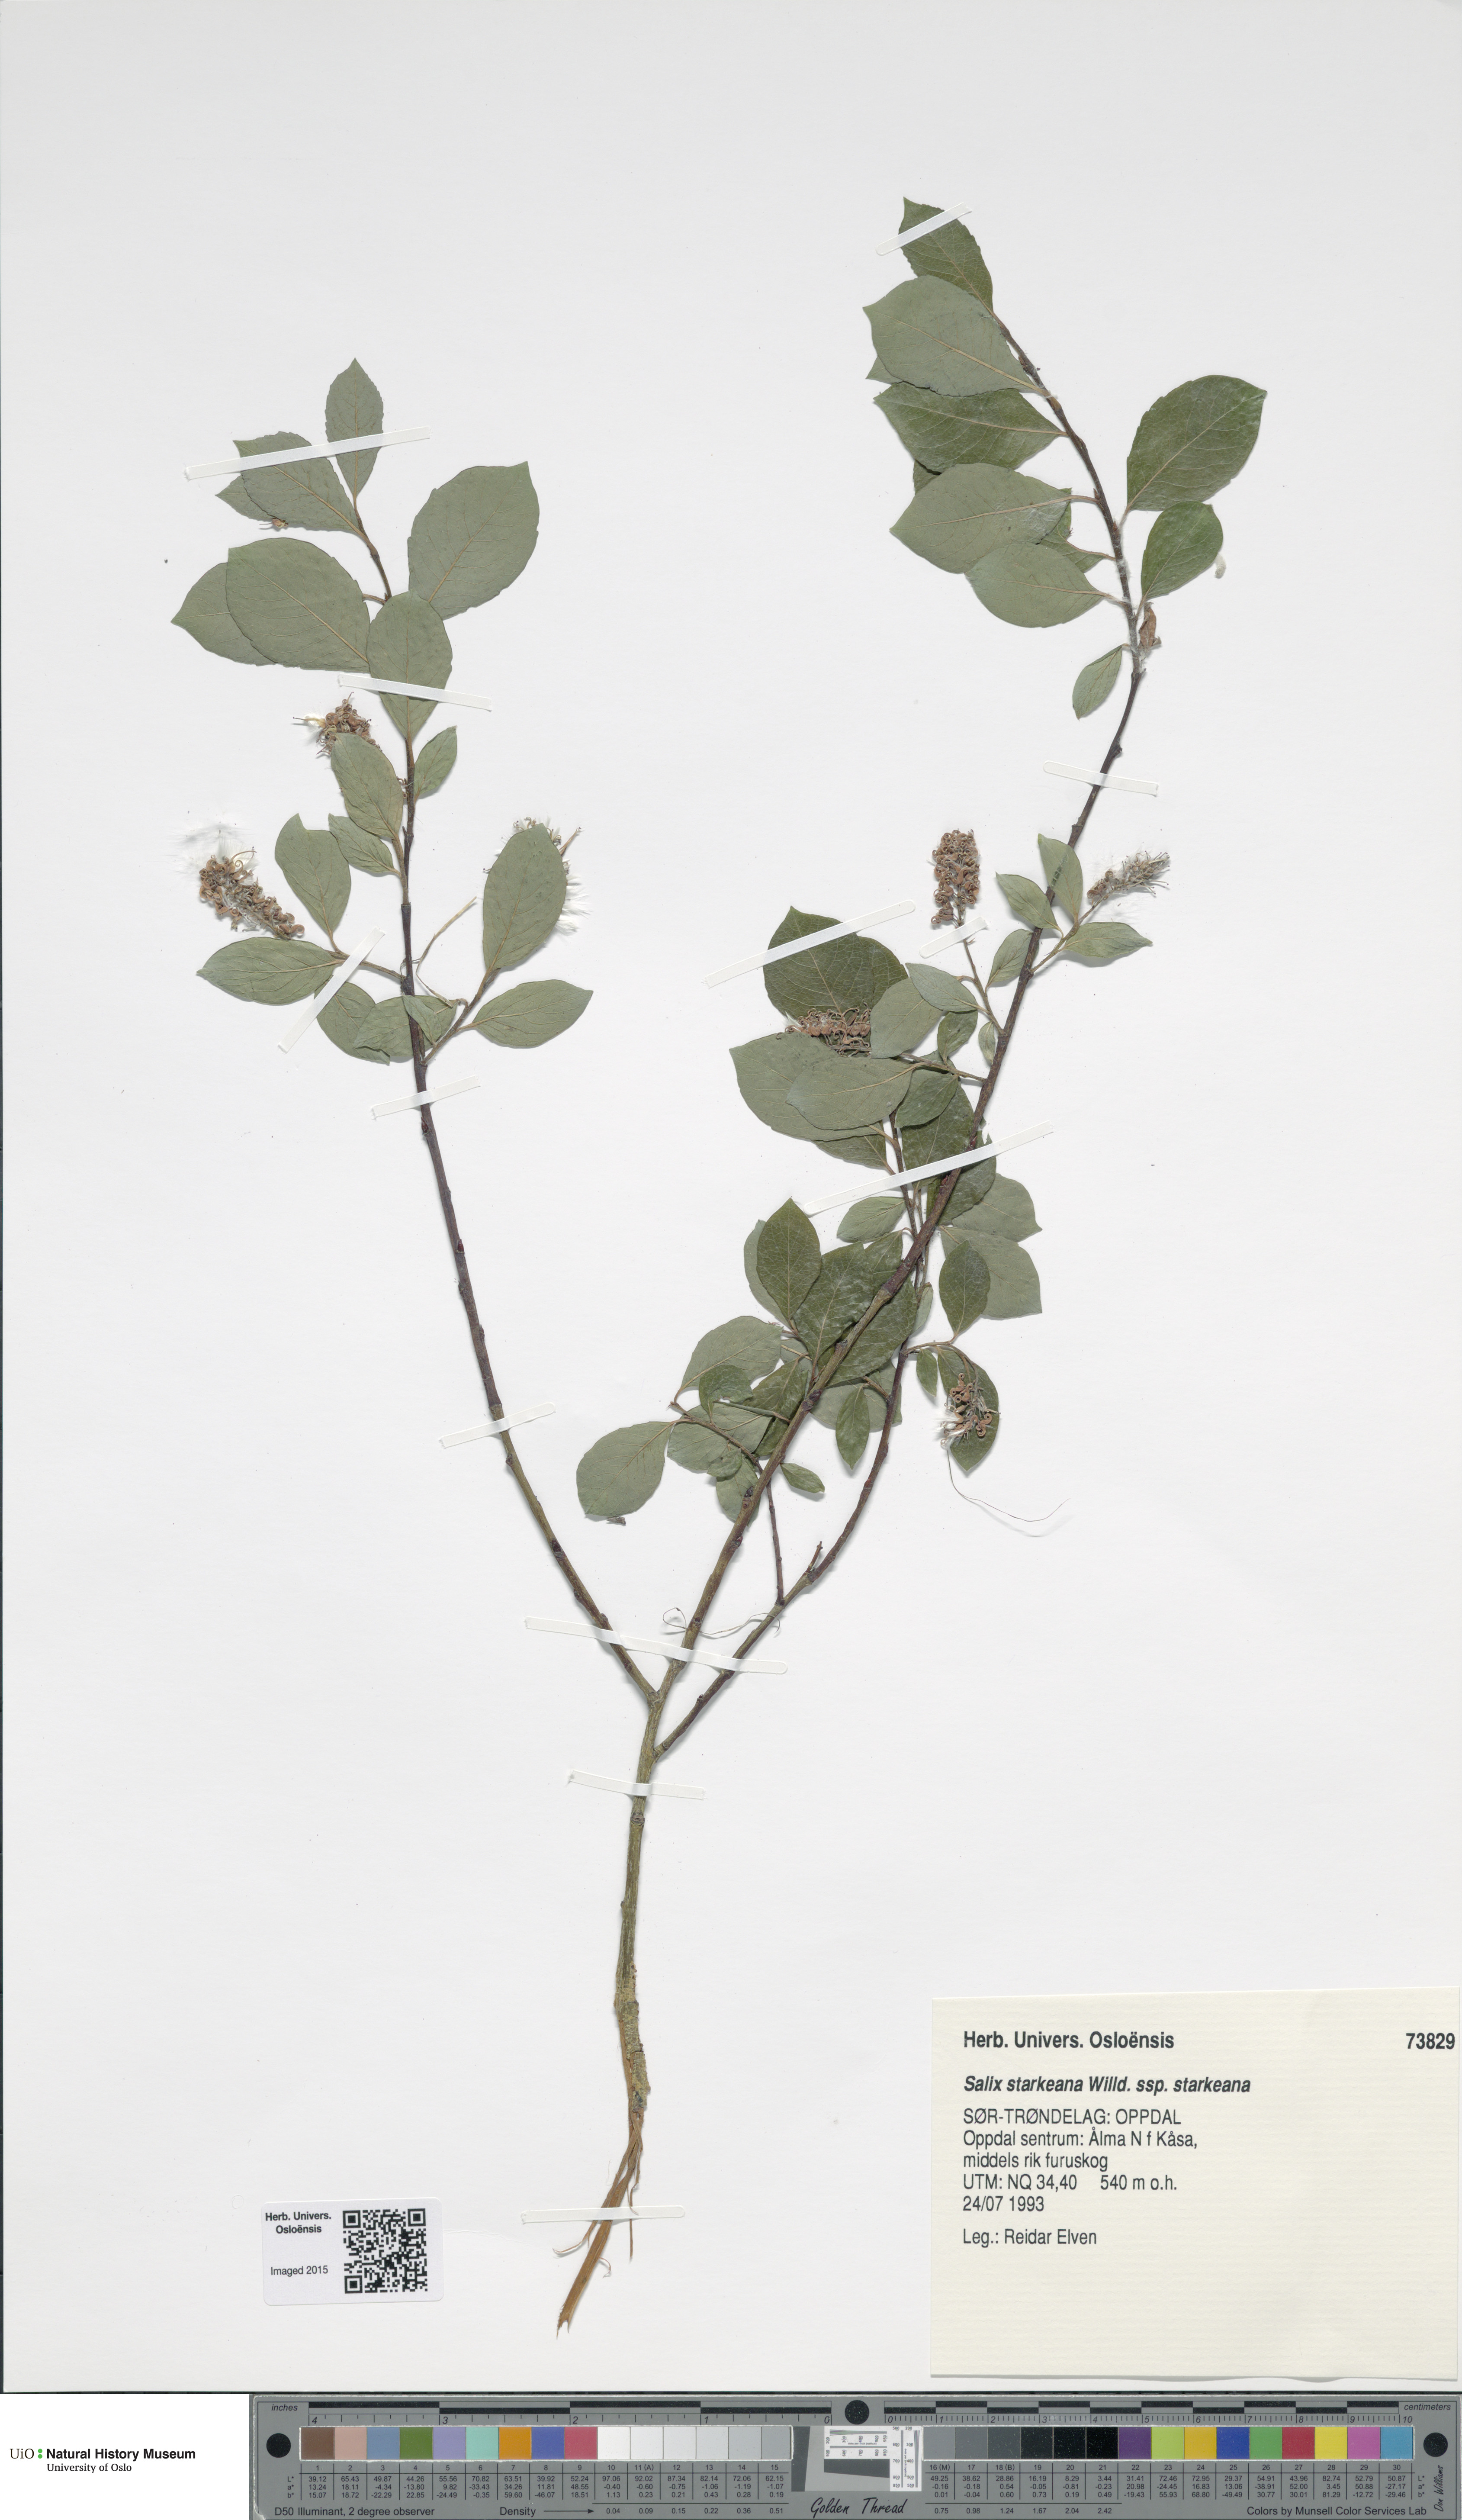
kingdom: Plantae
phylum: Tracheophyta
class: Magnoliopsida
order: Malpighiales
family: Salicaceae
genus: Salix
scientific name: Salix starkeana
